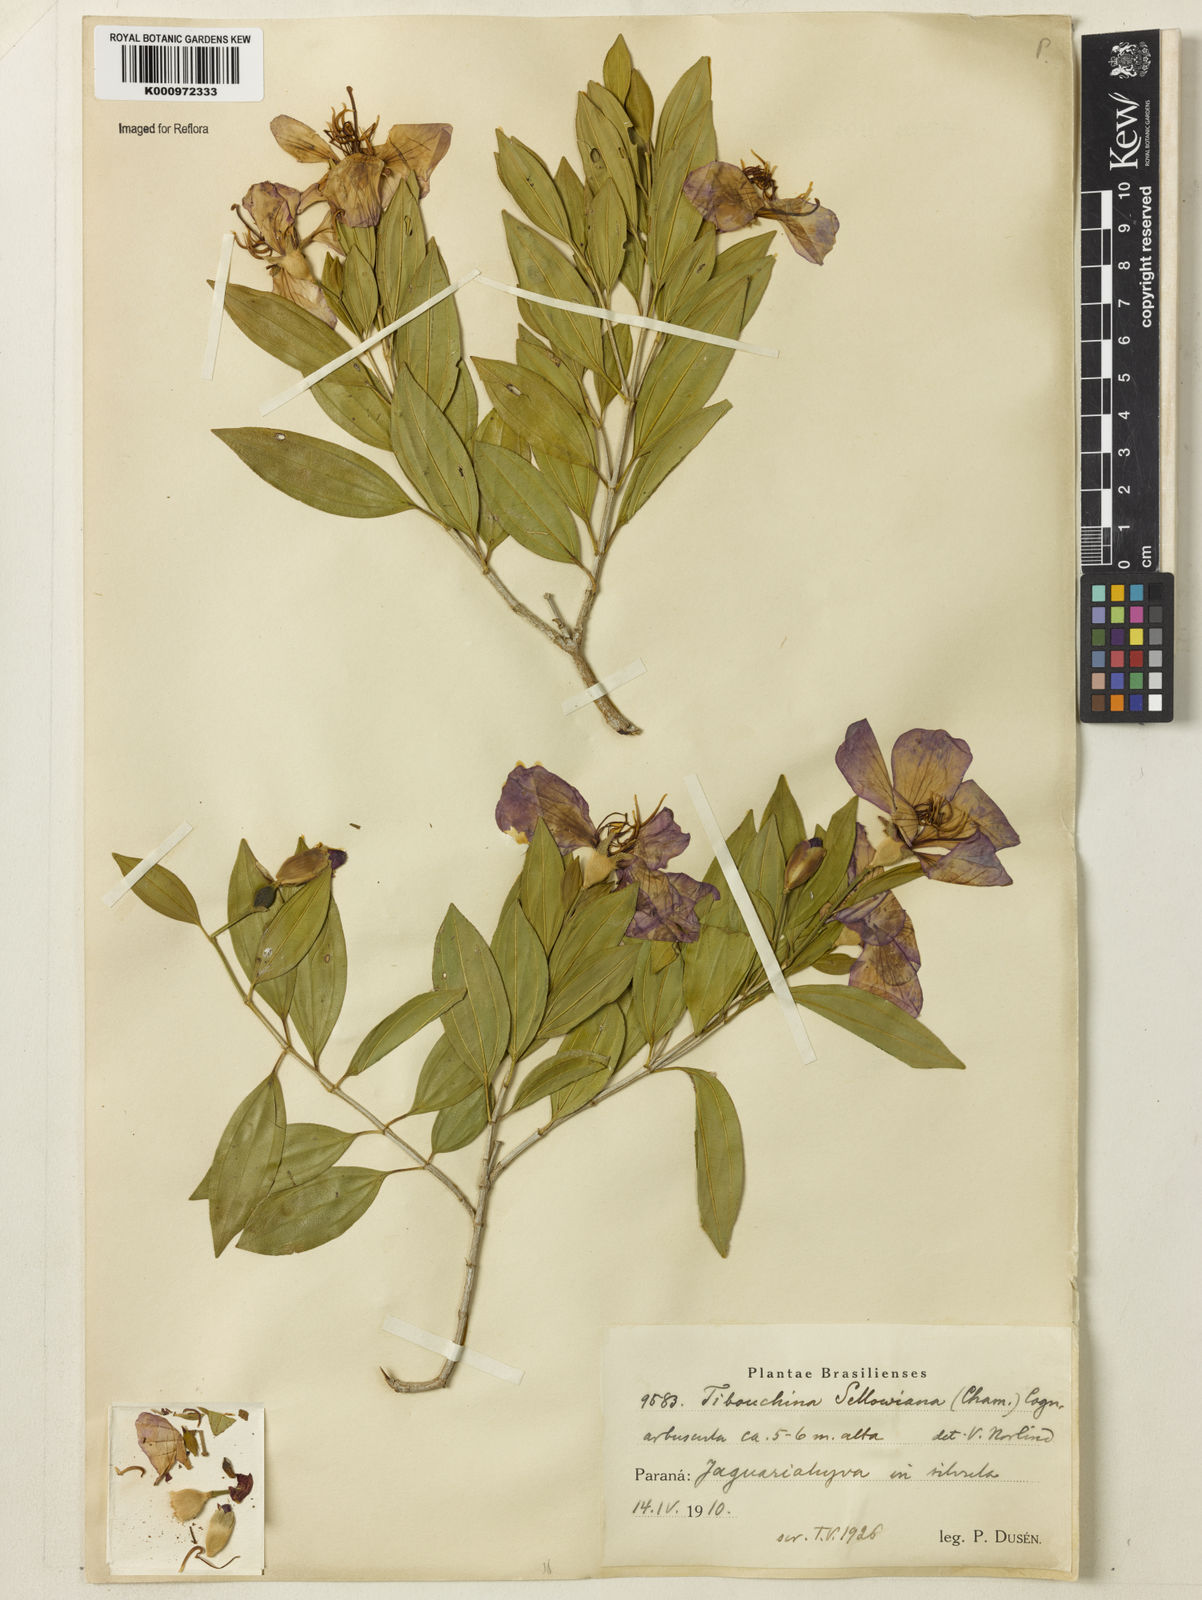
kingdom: Plantae
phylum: Tracheophyta
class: Magnoliopsida
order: Myrtales
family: Melastomataceae
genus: Pleroma
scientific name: Pleroma sellowianum
